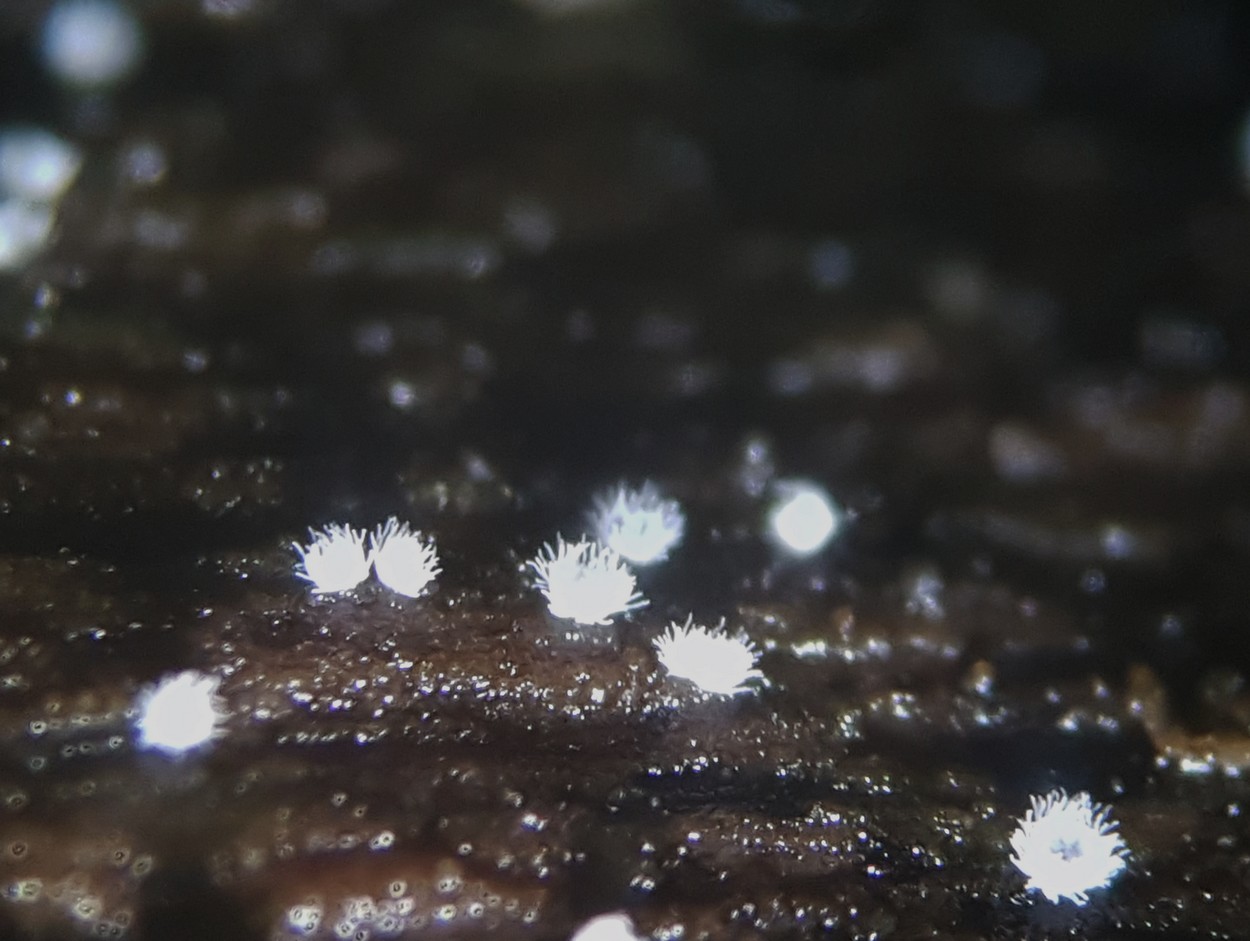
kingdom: Fungi
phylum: Basidiomycota
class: Agaricomycetes
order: Agaricales
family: Tricholomataceae
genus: Pseudolasiobolus
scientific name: Pseudolasiobolus minutissimus
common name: plejadeskål
